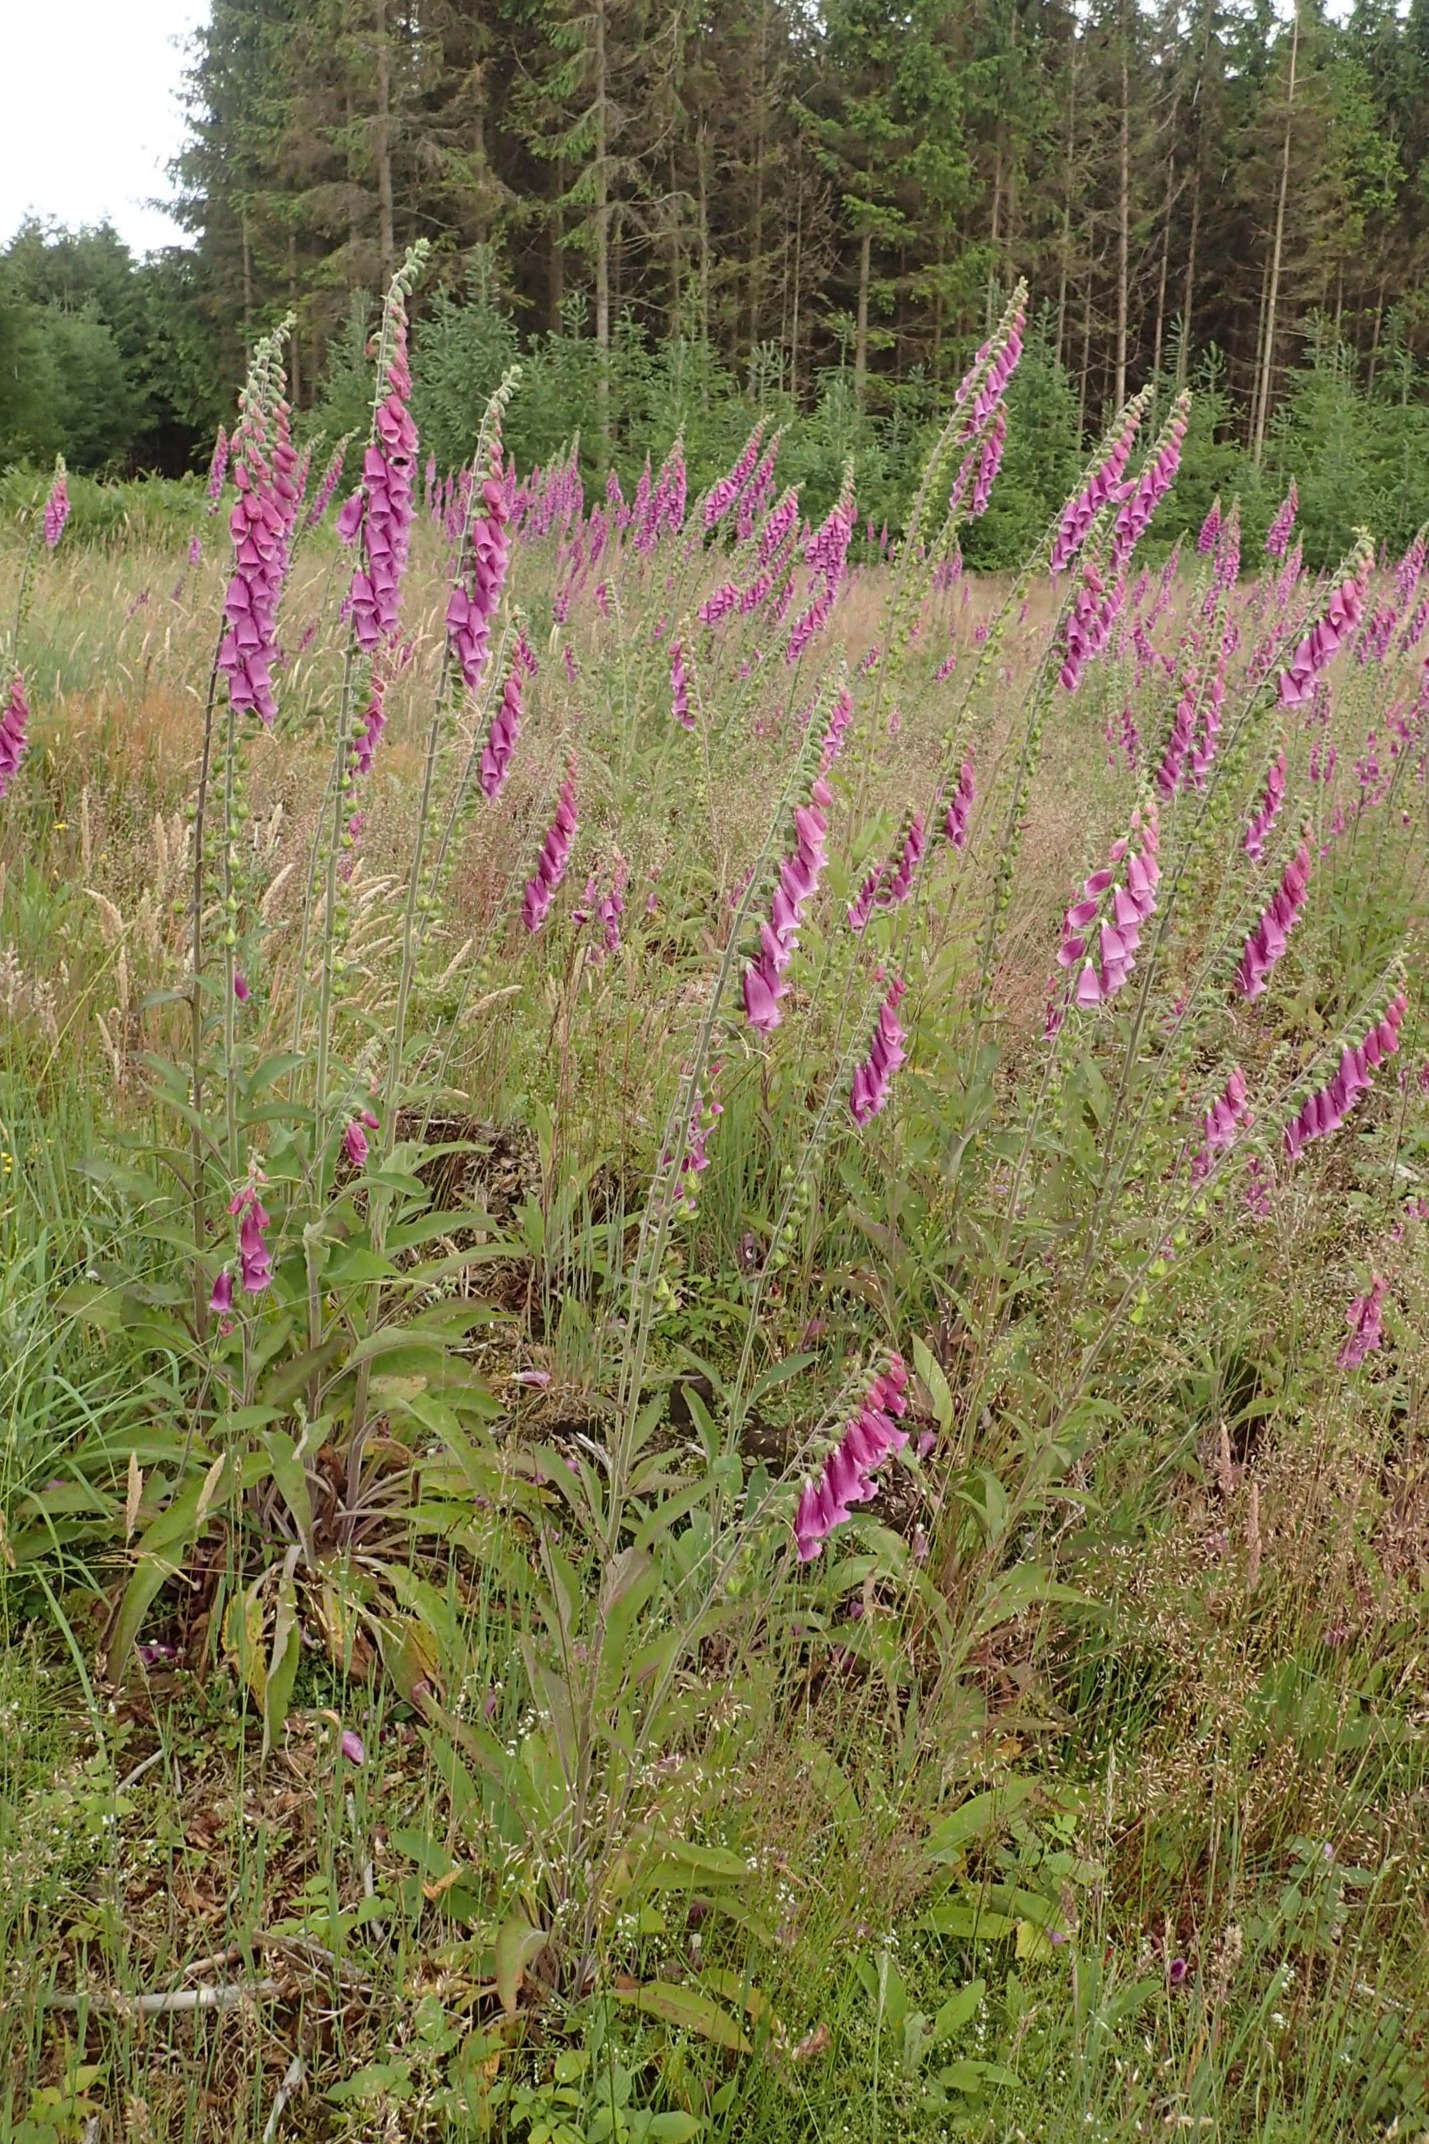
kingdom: Plantae
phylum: Tracheophyta
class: Magnoliopsida
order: Lamiales
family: Plantaginaceae
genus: Digitalis
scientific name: Digitalis purpurea
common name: Almindelig fingerbøl
